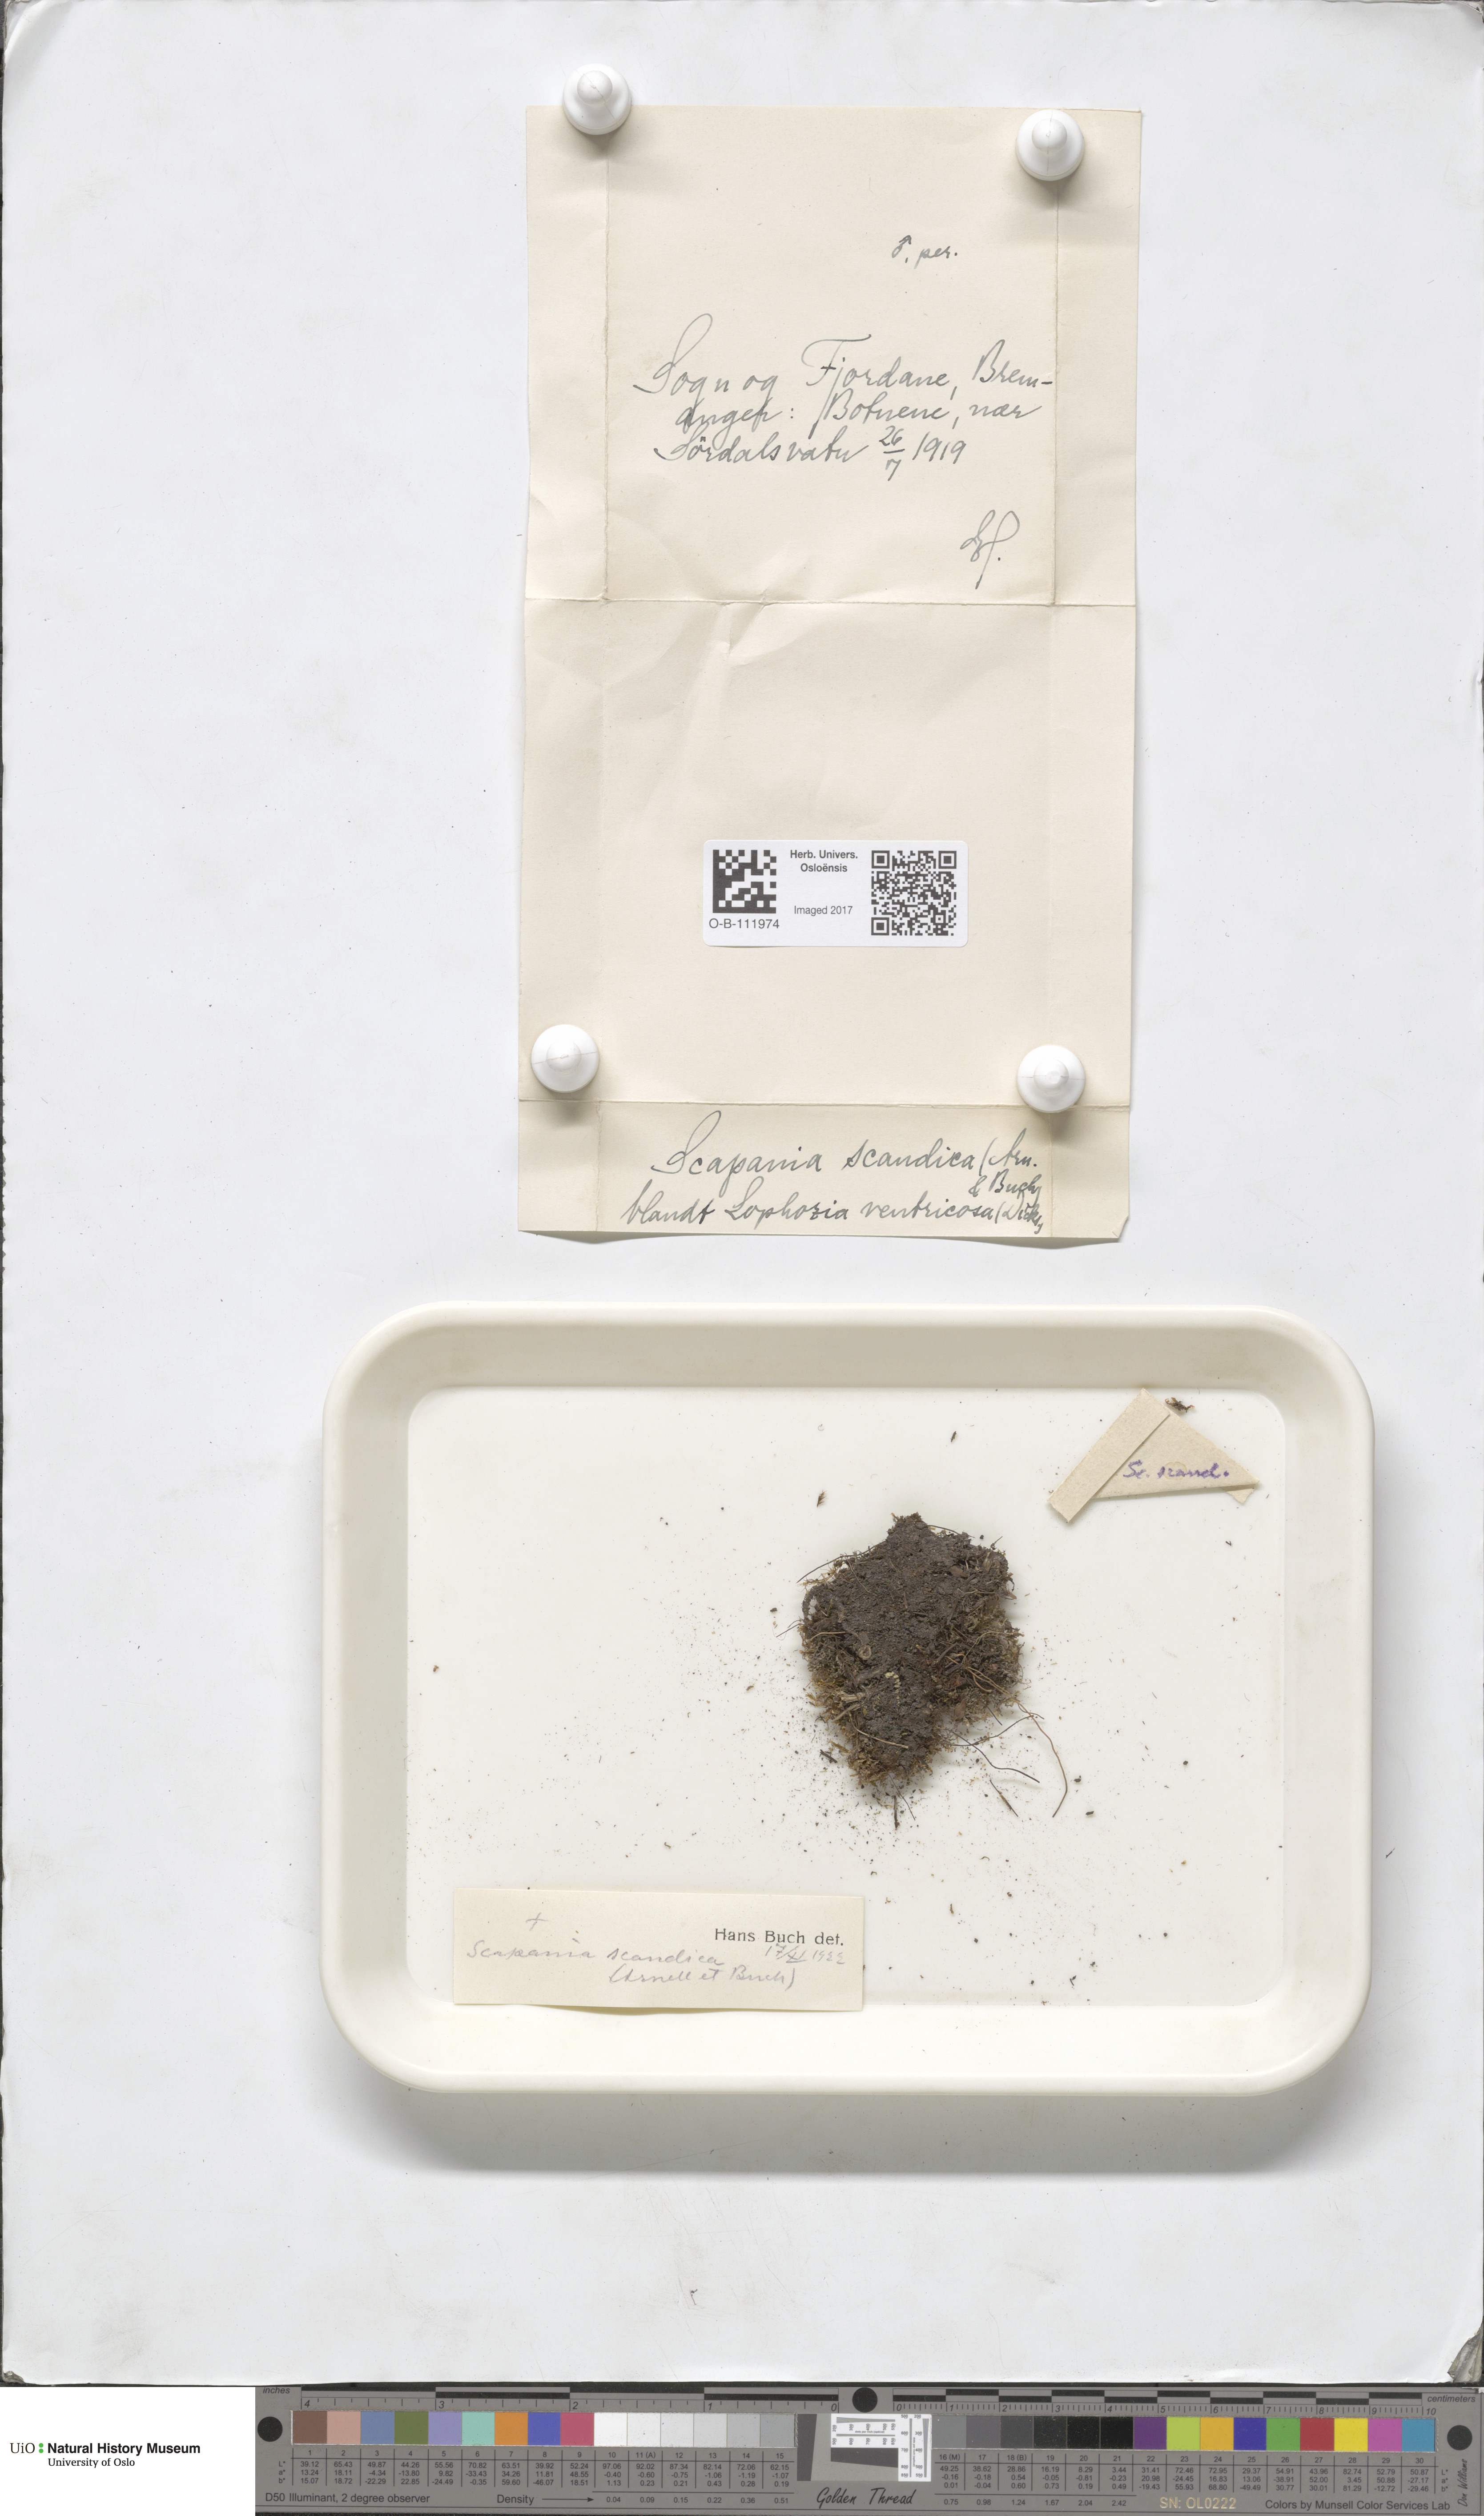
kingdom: Plantae
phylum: Marchantiophyta
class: Jungermanniopsida
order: Jungermanniales
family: Scapaniaceae
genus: Scapania
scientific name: Scapania scandica
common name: Norwegian earwort
